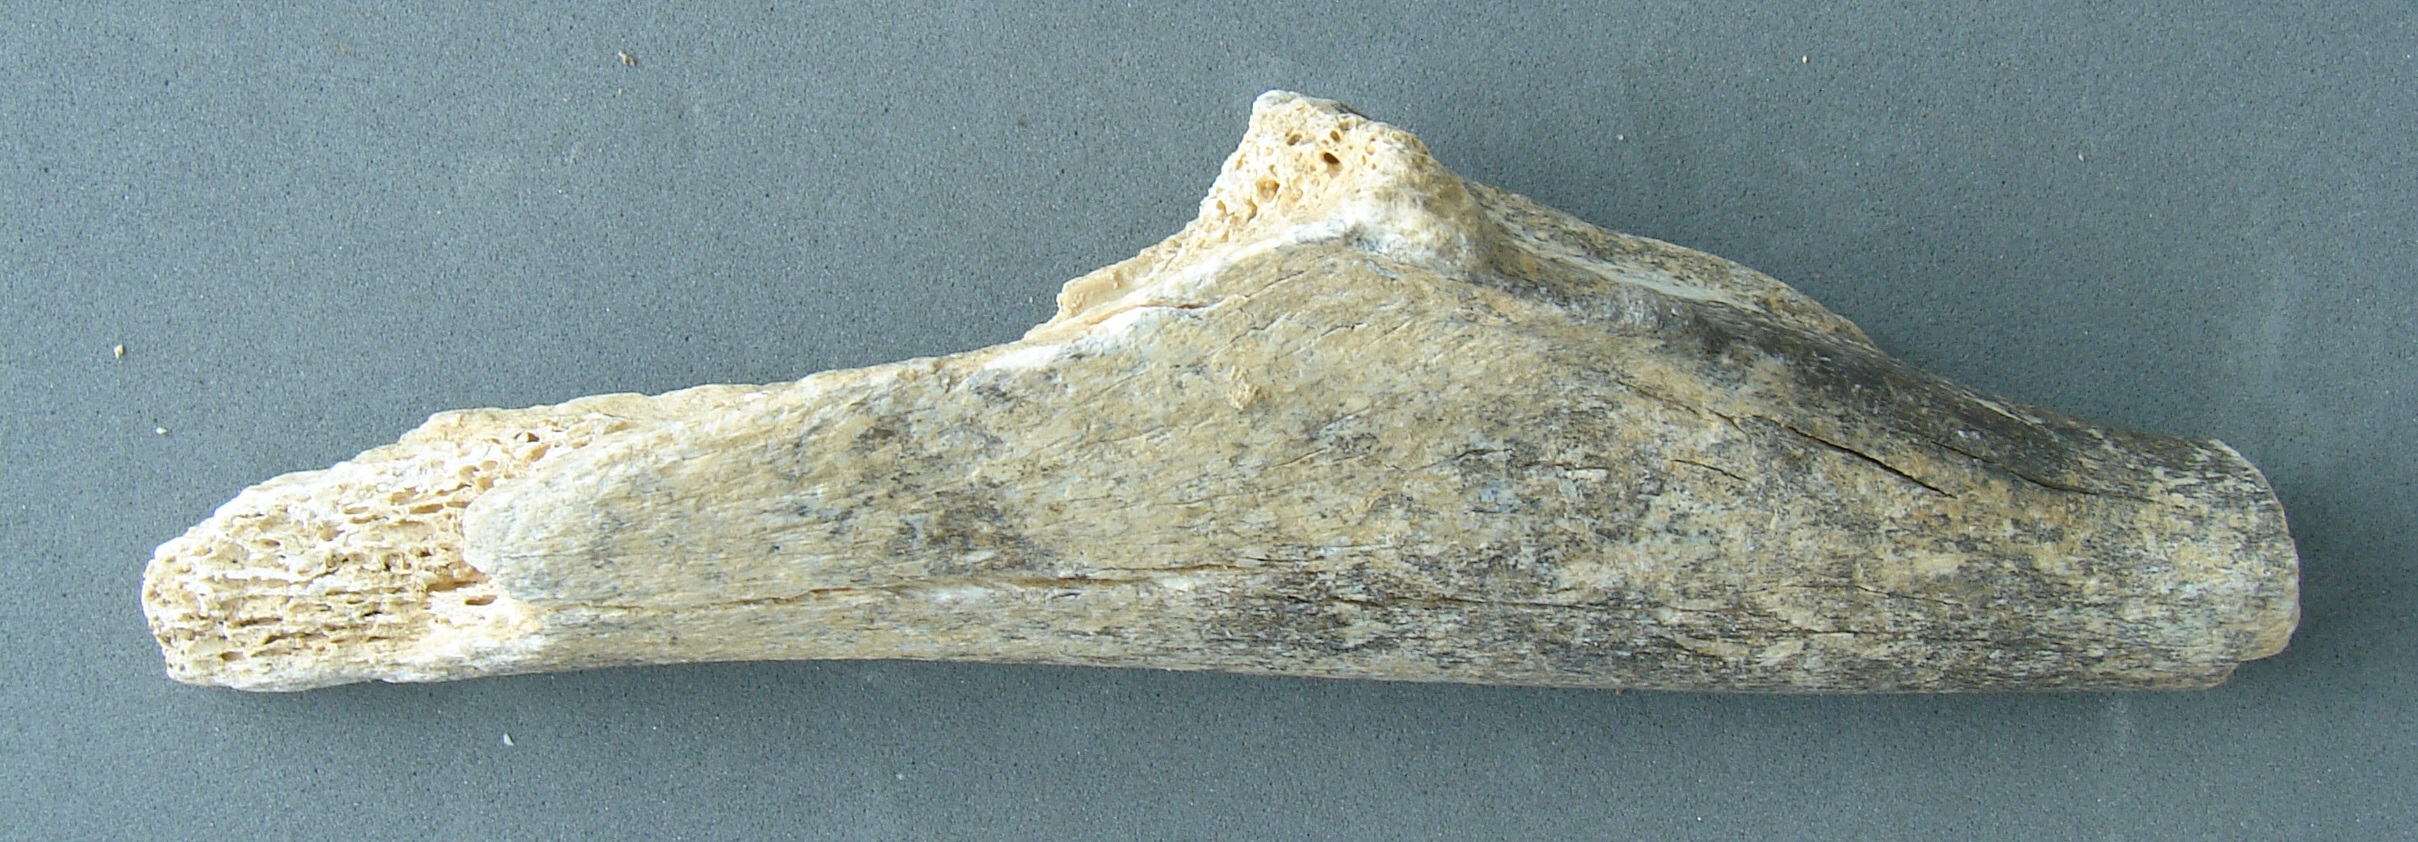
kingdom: Animalia
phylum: Chordata
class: Mammalia
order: Artiodactyla
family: Cervidae
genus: Cervus
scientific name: Cervus elaphus
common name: Red deer
